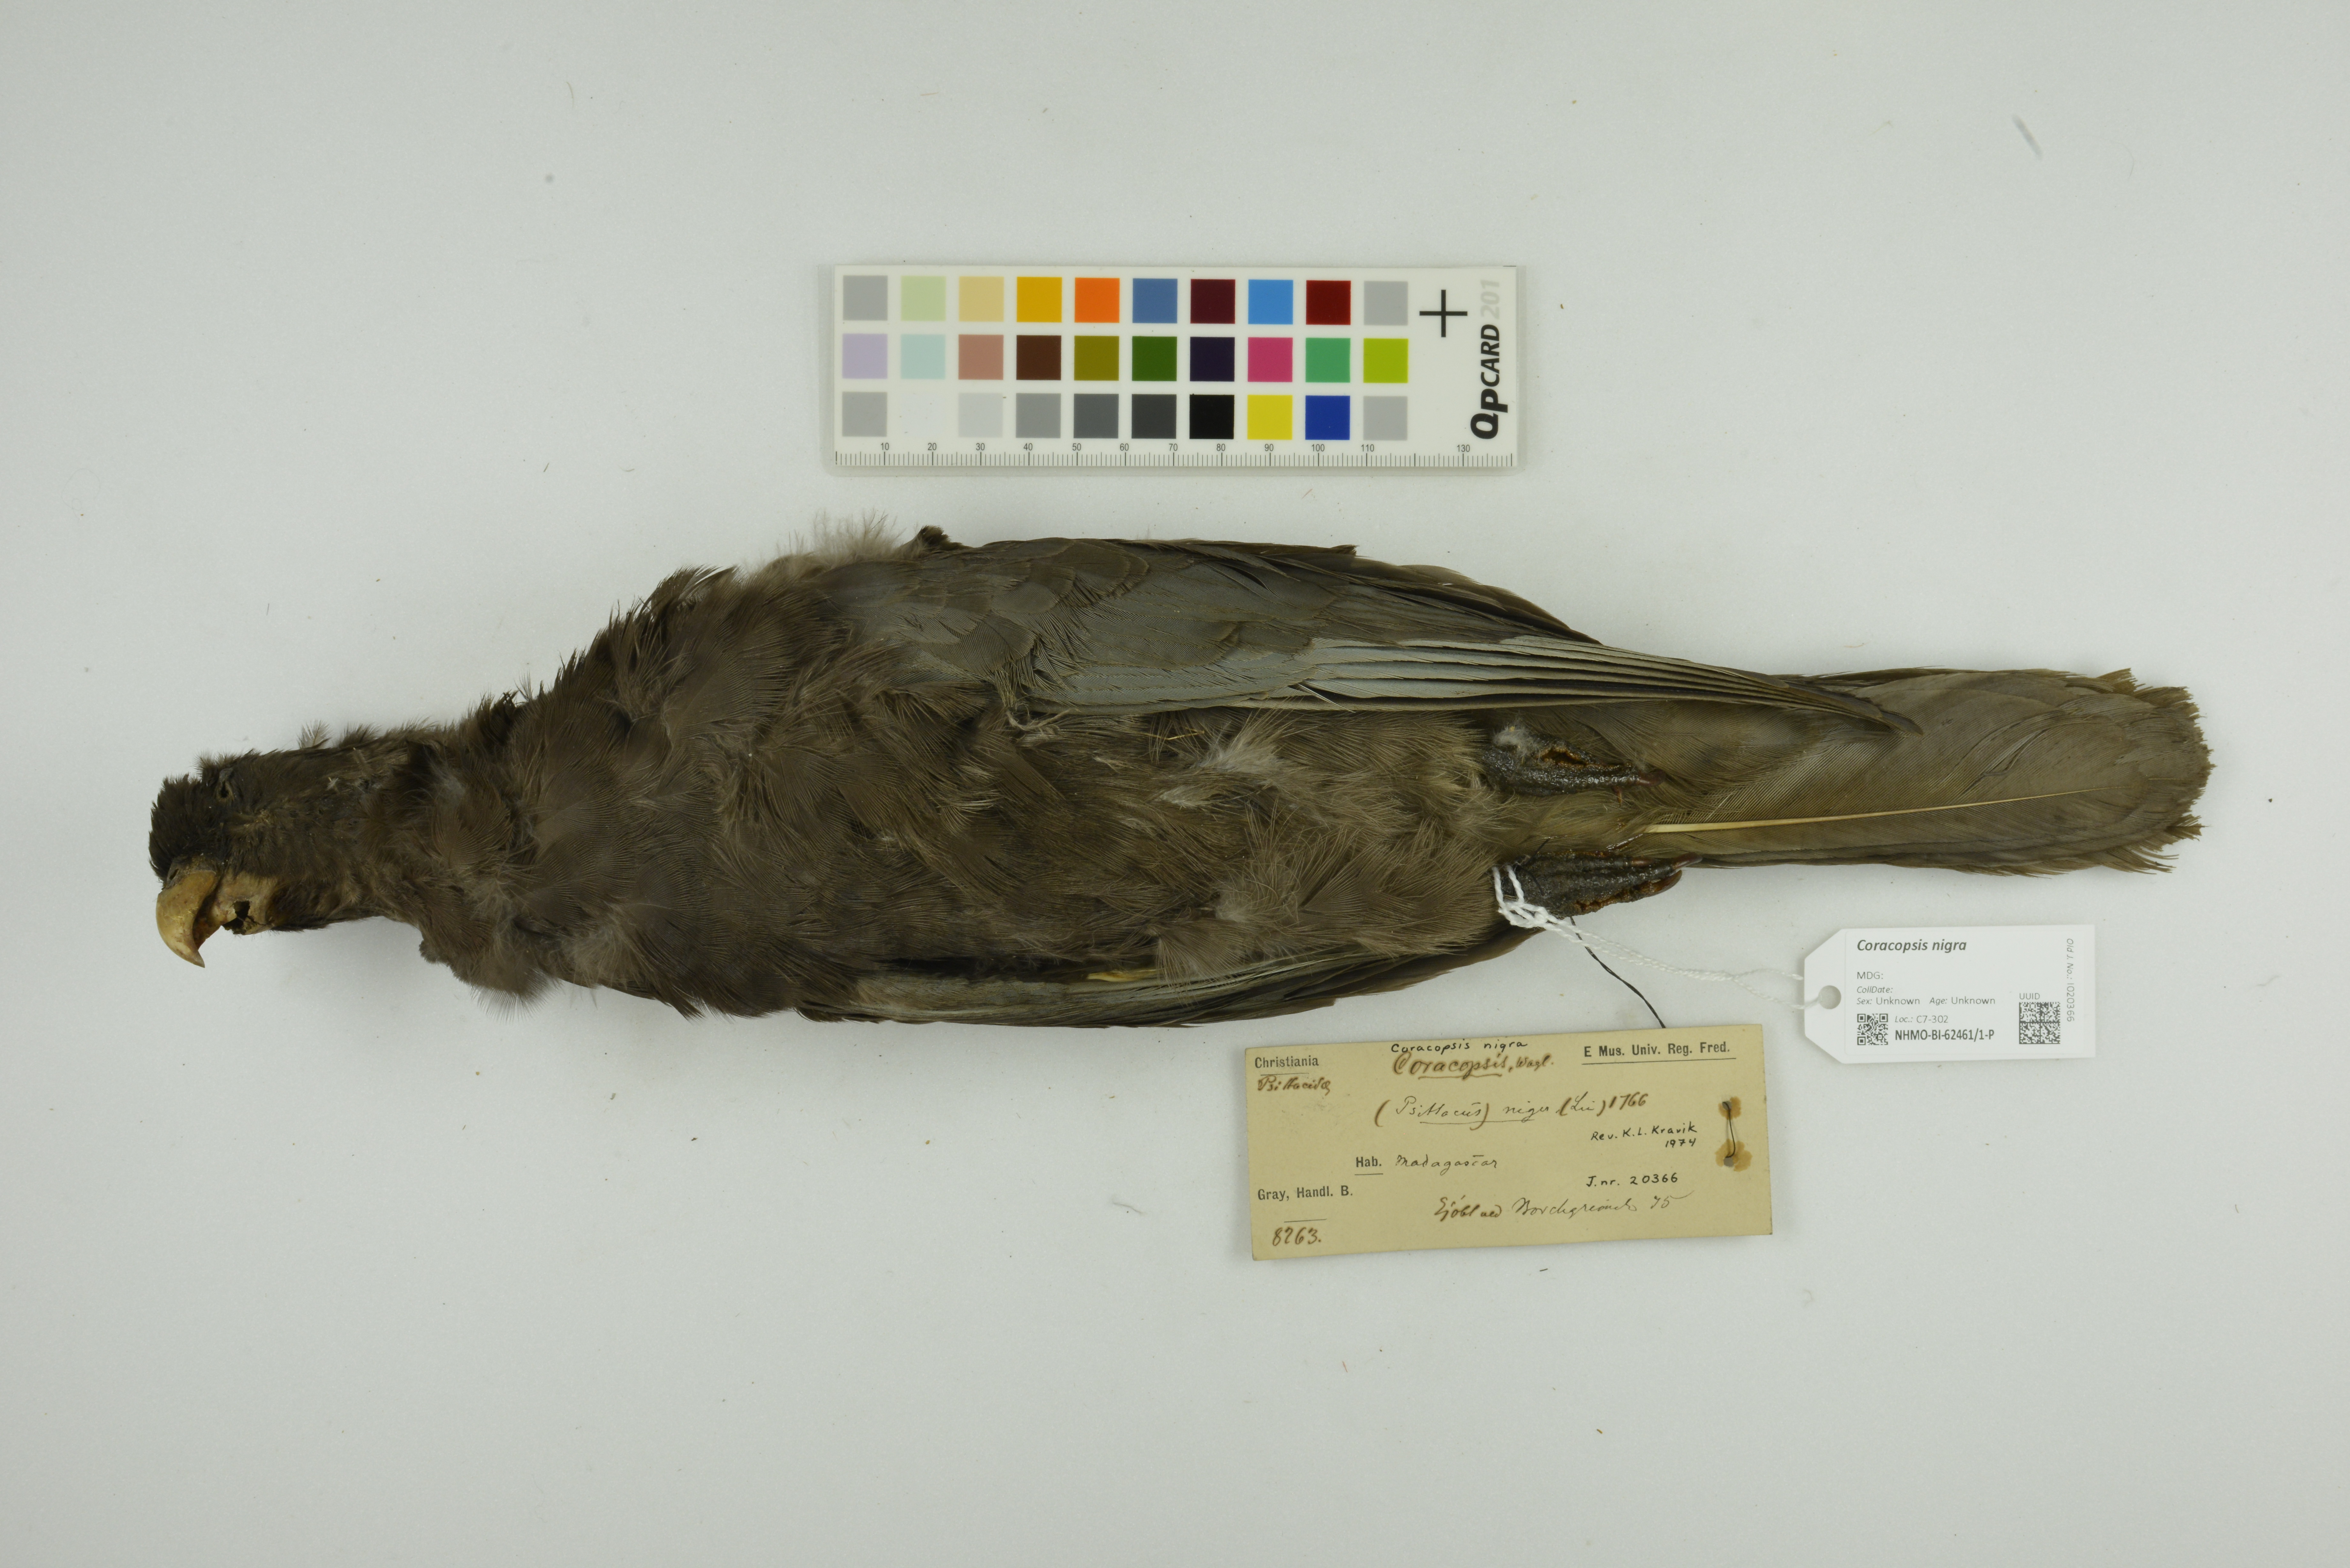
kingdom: Animalia
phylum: Chordata
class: Aves
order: Psittaciformes
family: Psittacidae
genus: Coracopsis
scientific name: Coracopsis nigra
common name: Lesser vasa parrot
